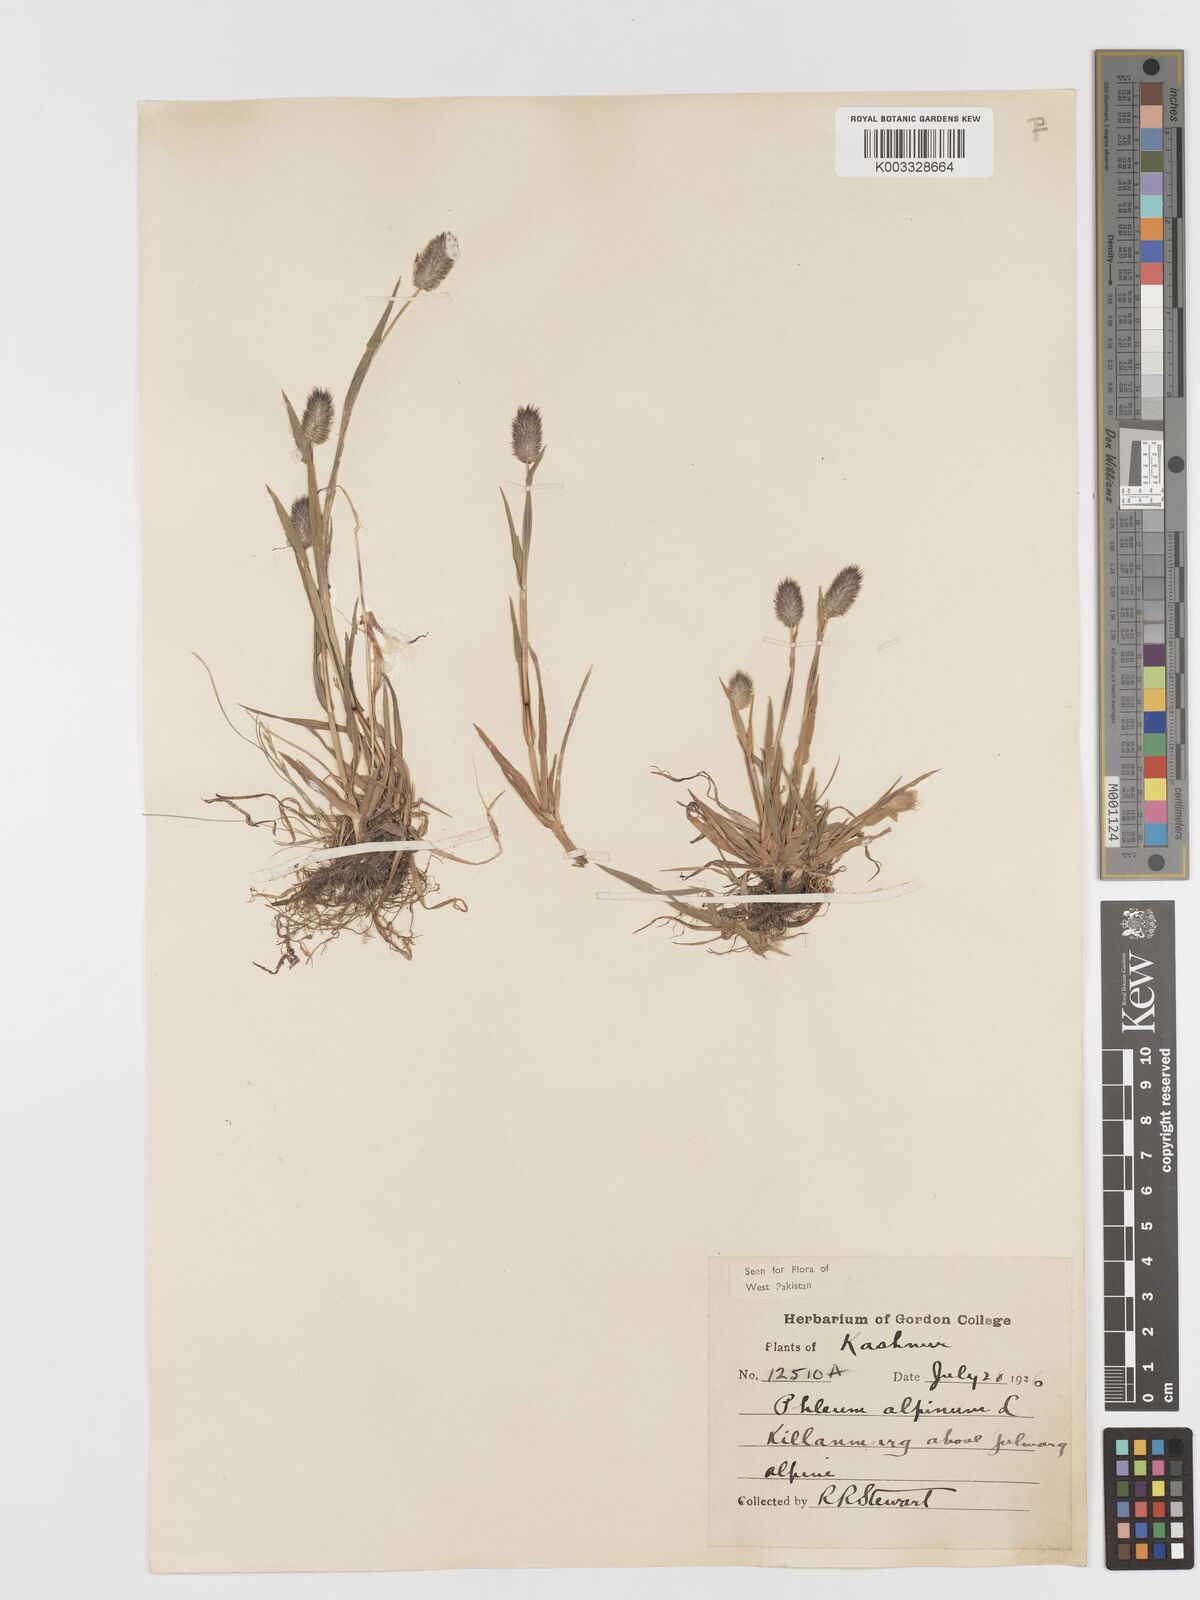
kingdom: Plantae
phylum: Tracheophyta
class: Liliopsida
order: Poales
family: Poaceae
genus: Phleum
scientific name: Phleum alpinum
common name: Alpine cat's-tail
